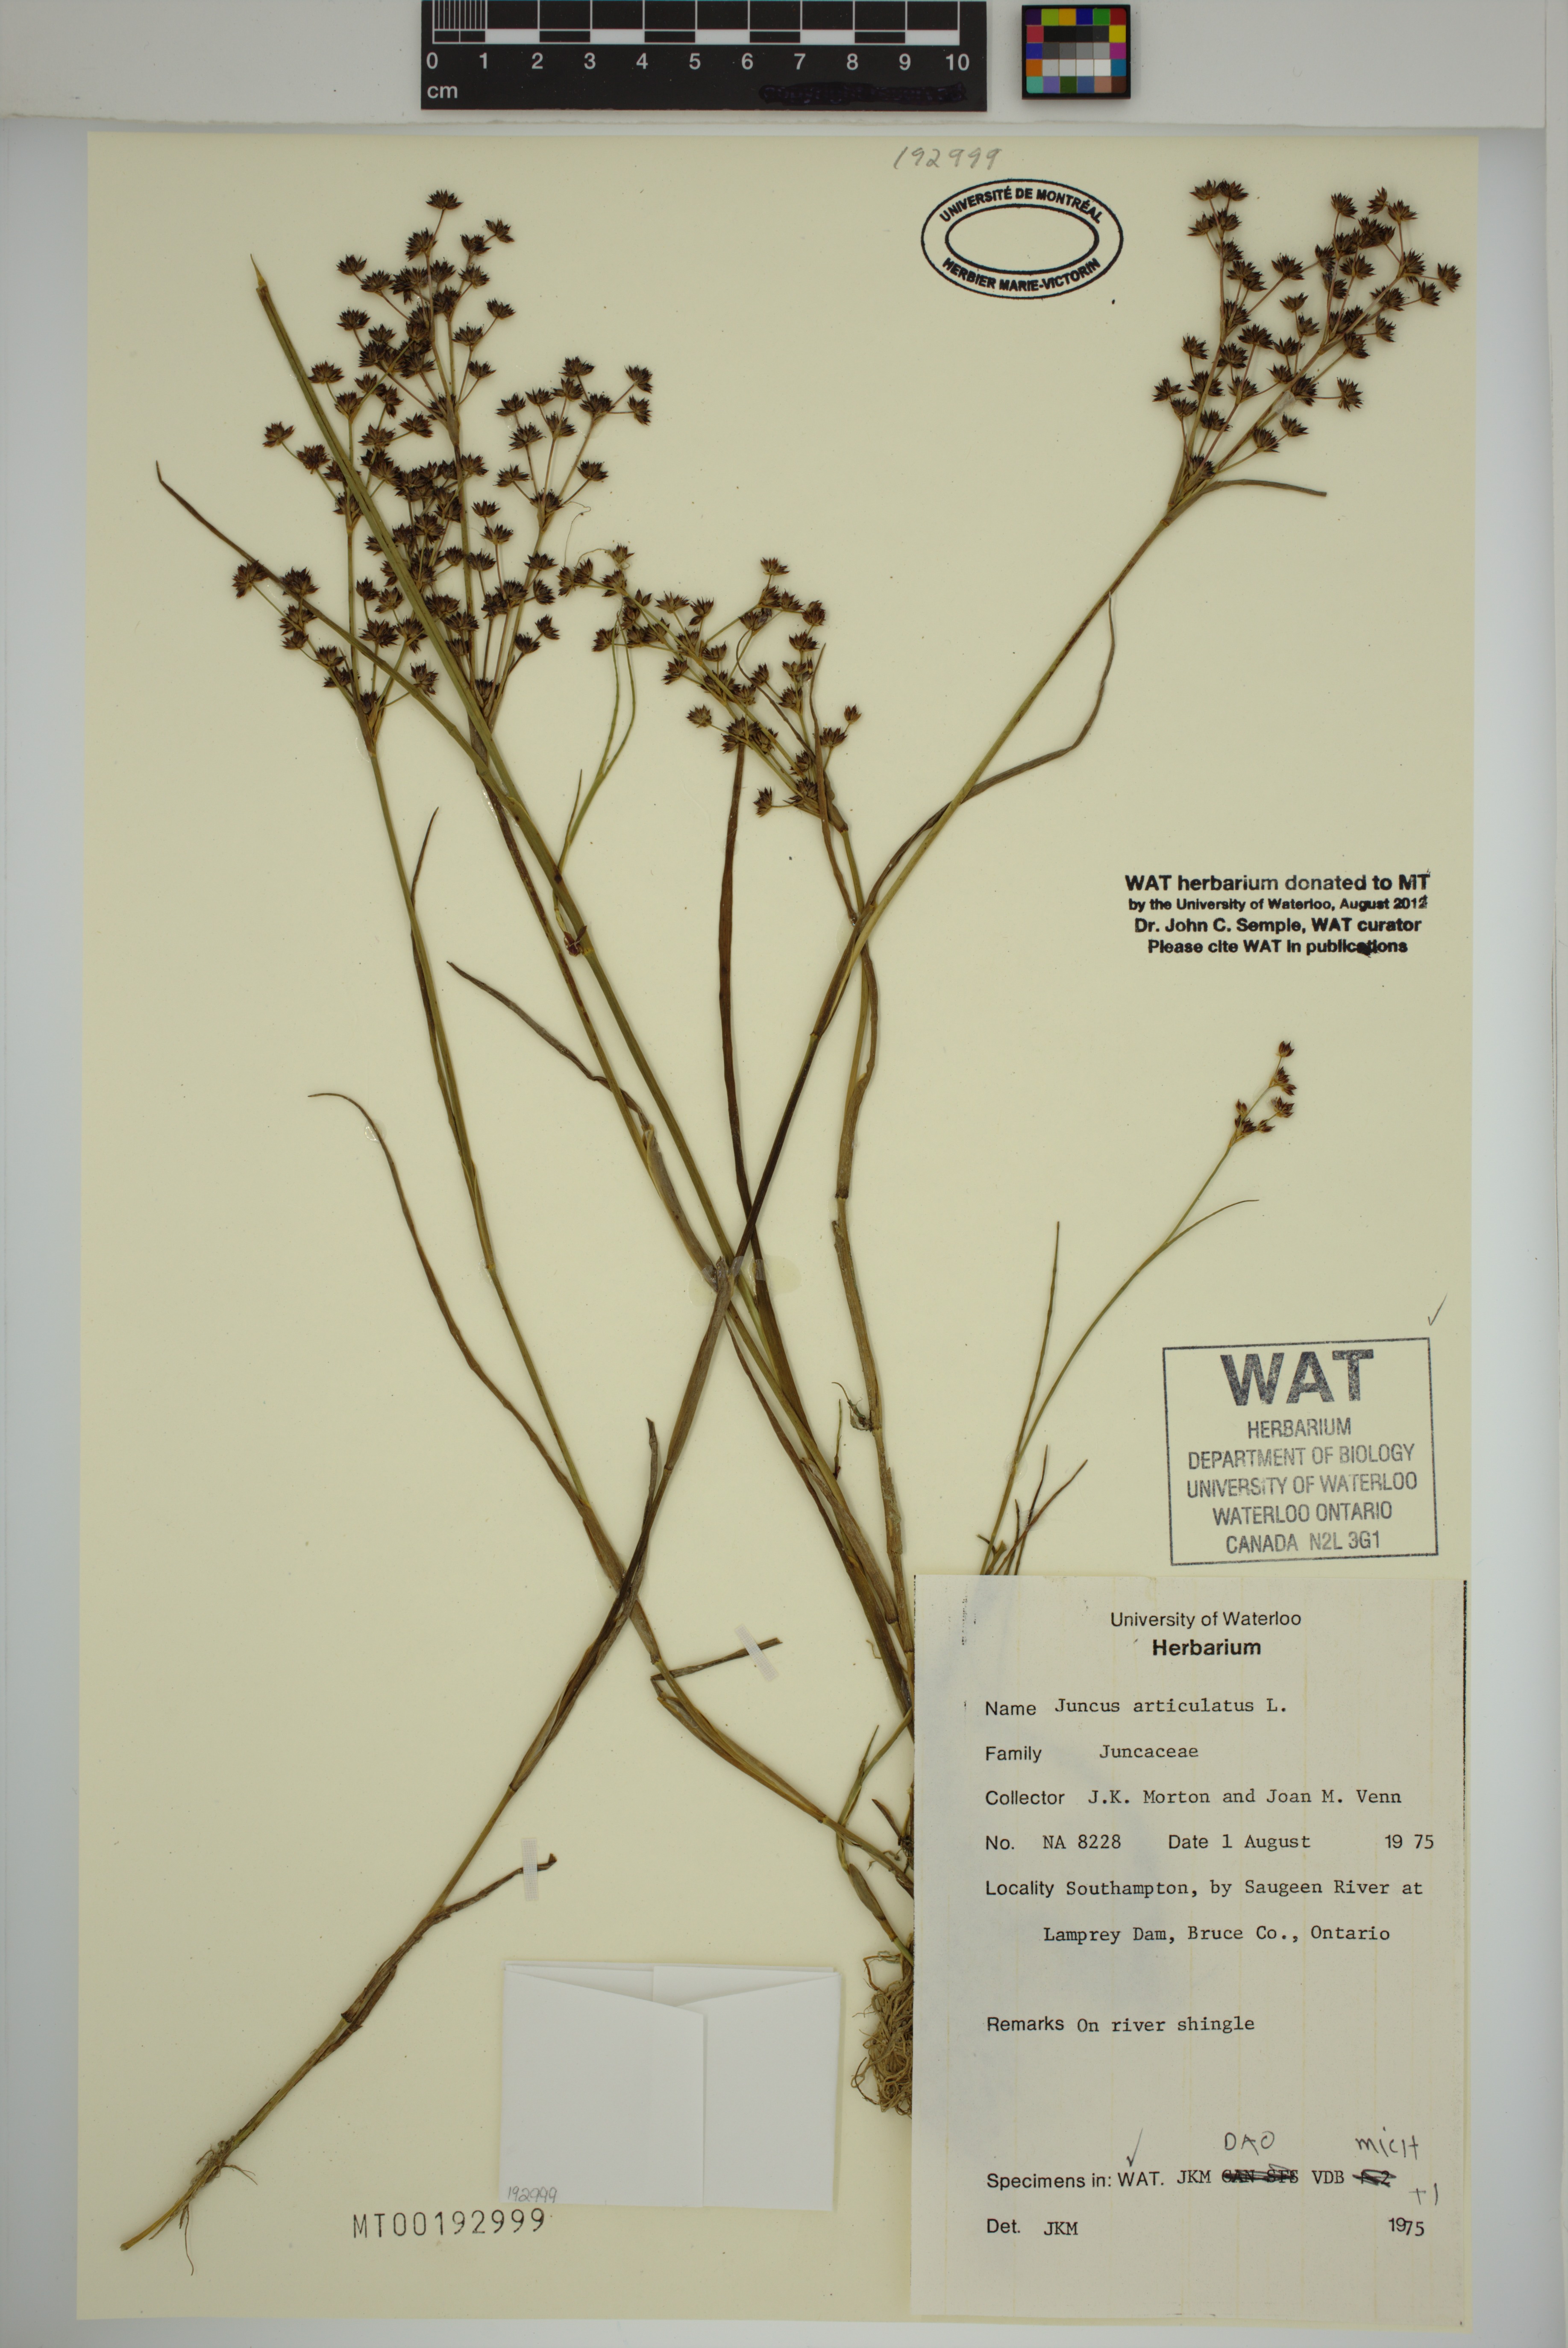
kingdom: Plantae
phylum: Tracheophyta
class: Liliopsida
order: Poales
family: Juncaceae
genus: Juncus
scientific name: Juncus articulatus
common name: Jointed rush
